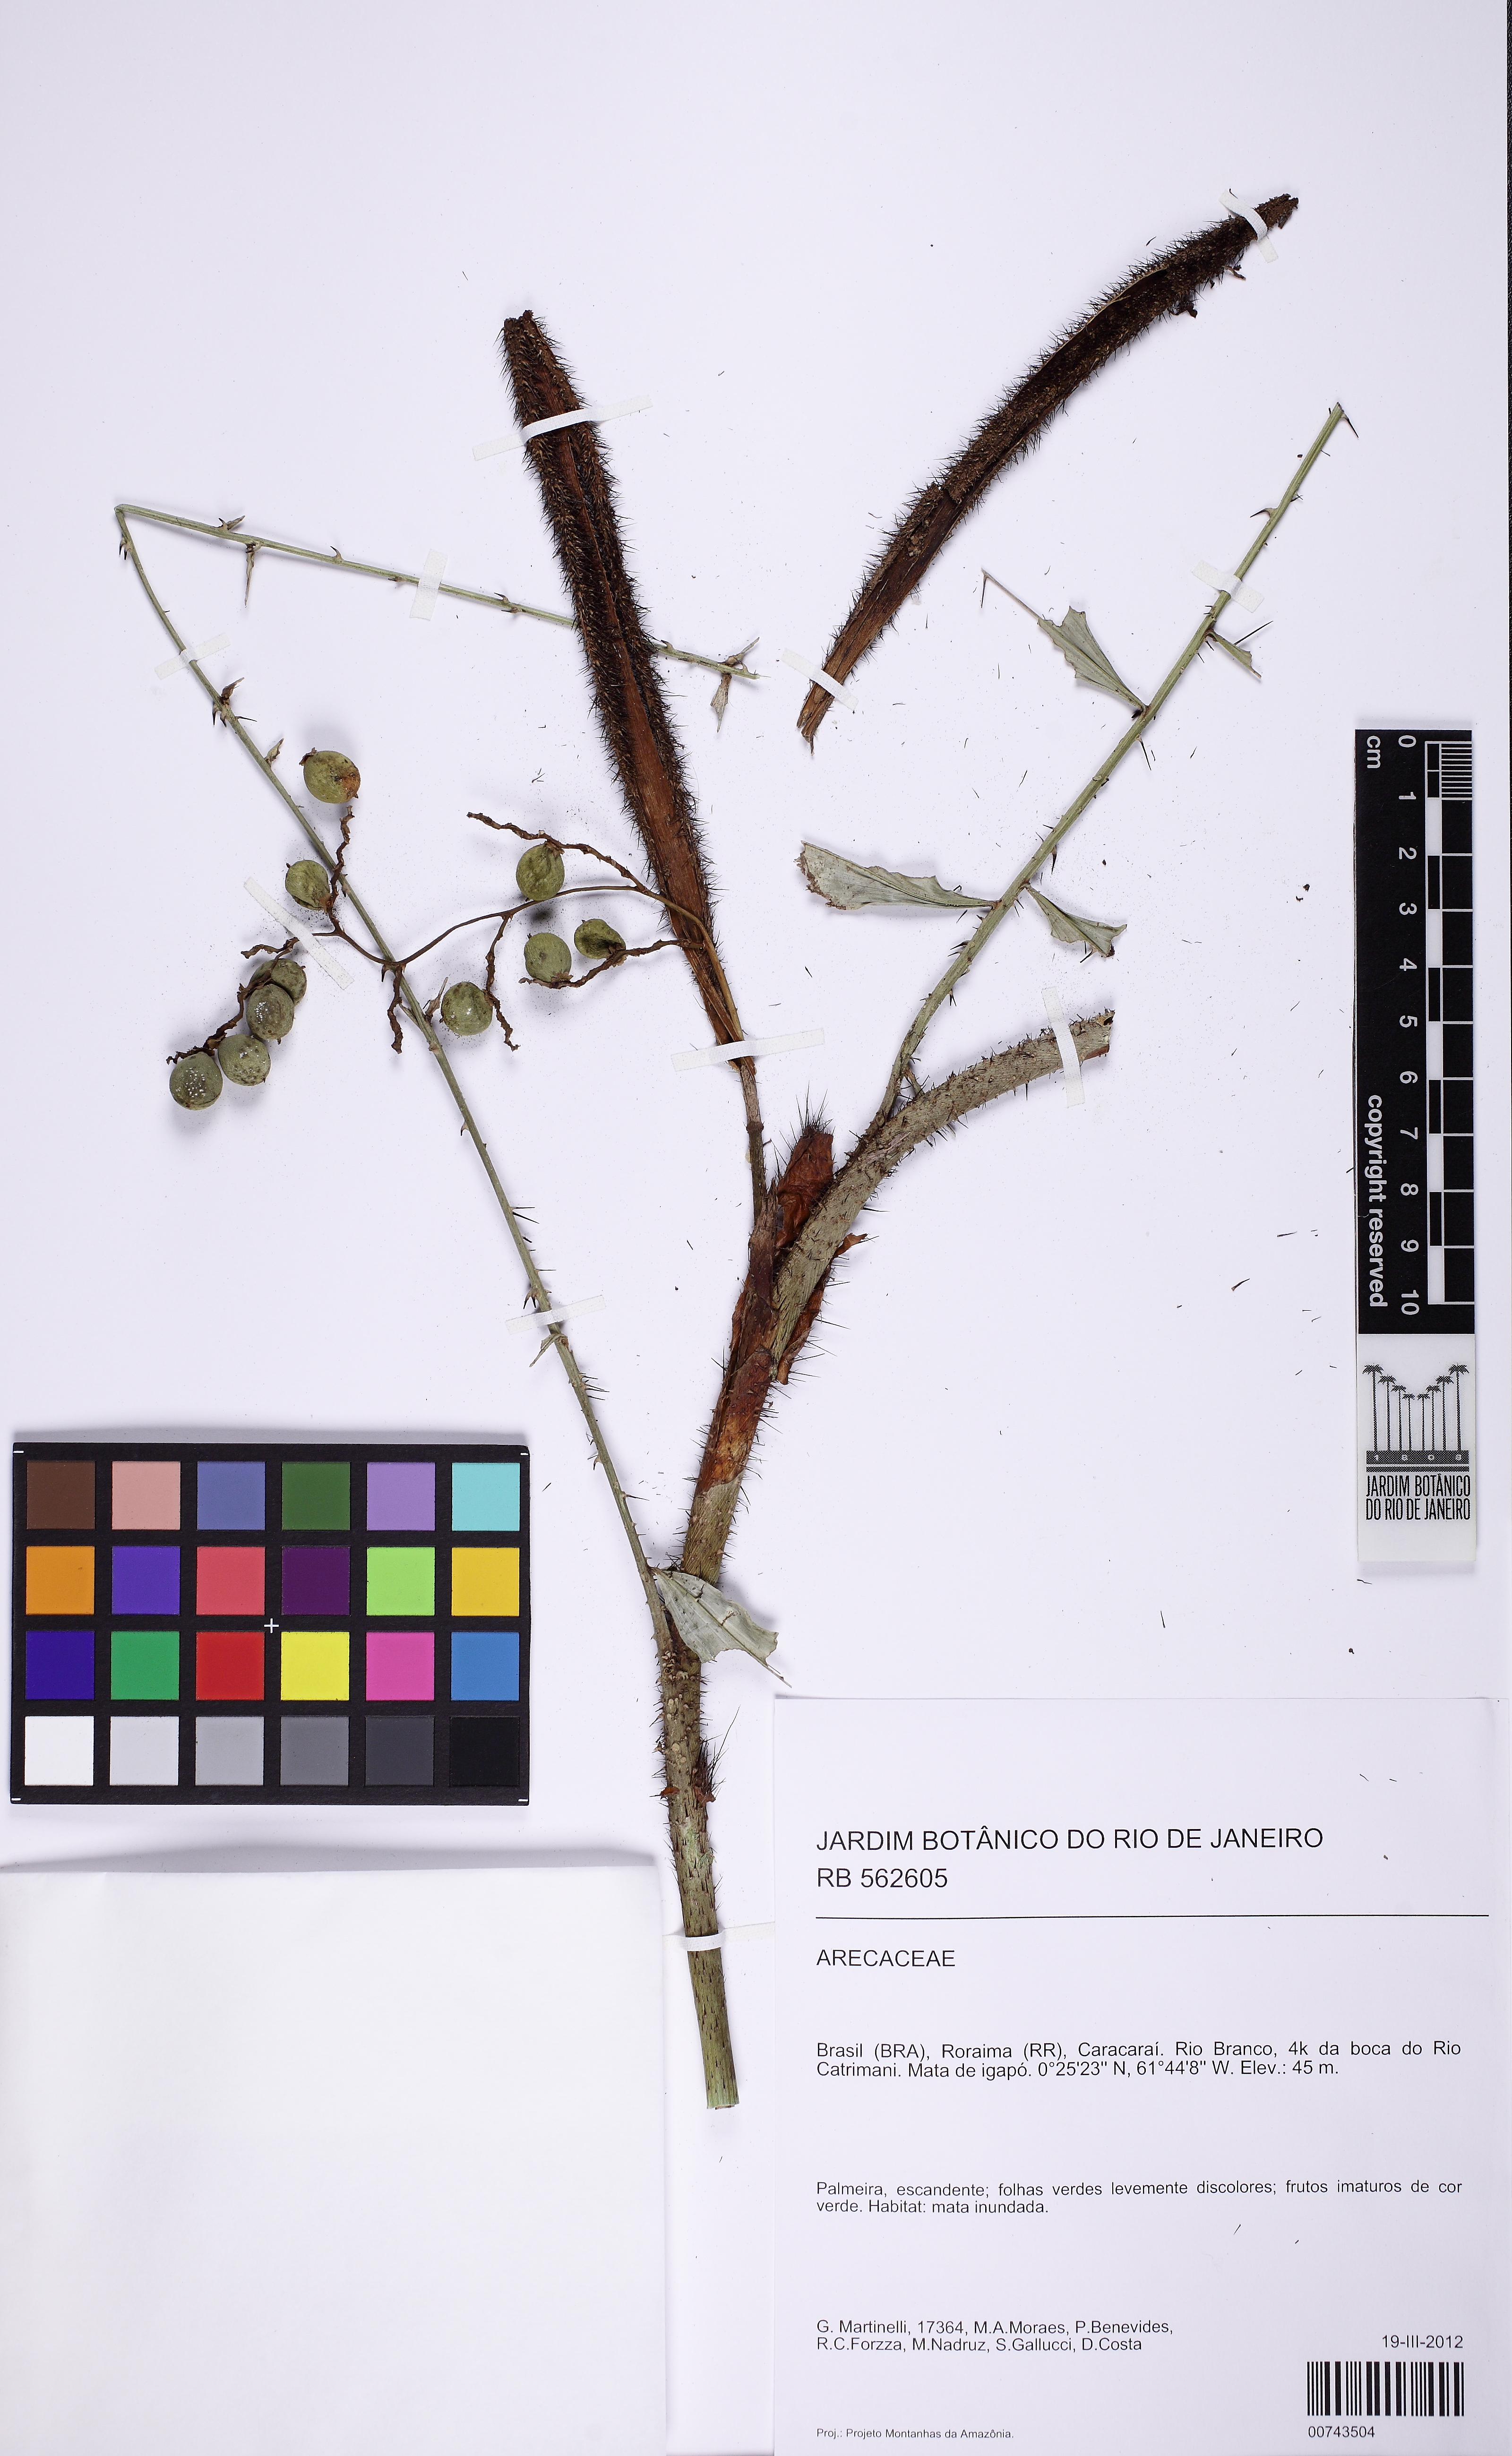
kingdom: Plantae
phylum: Tracheophyta
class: Liliopsida
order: Arecales
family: Arecaceae
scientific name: Arecaceae
